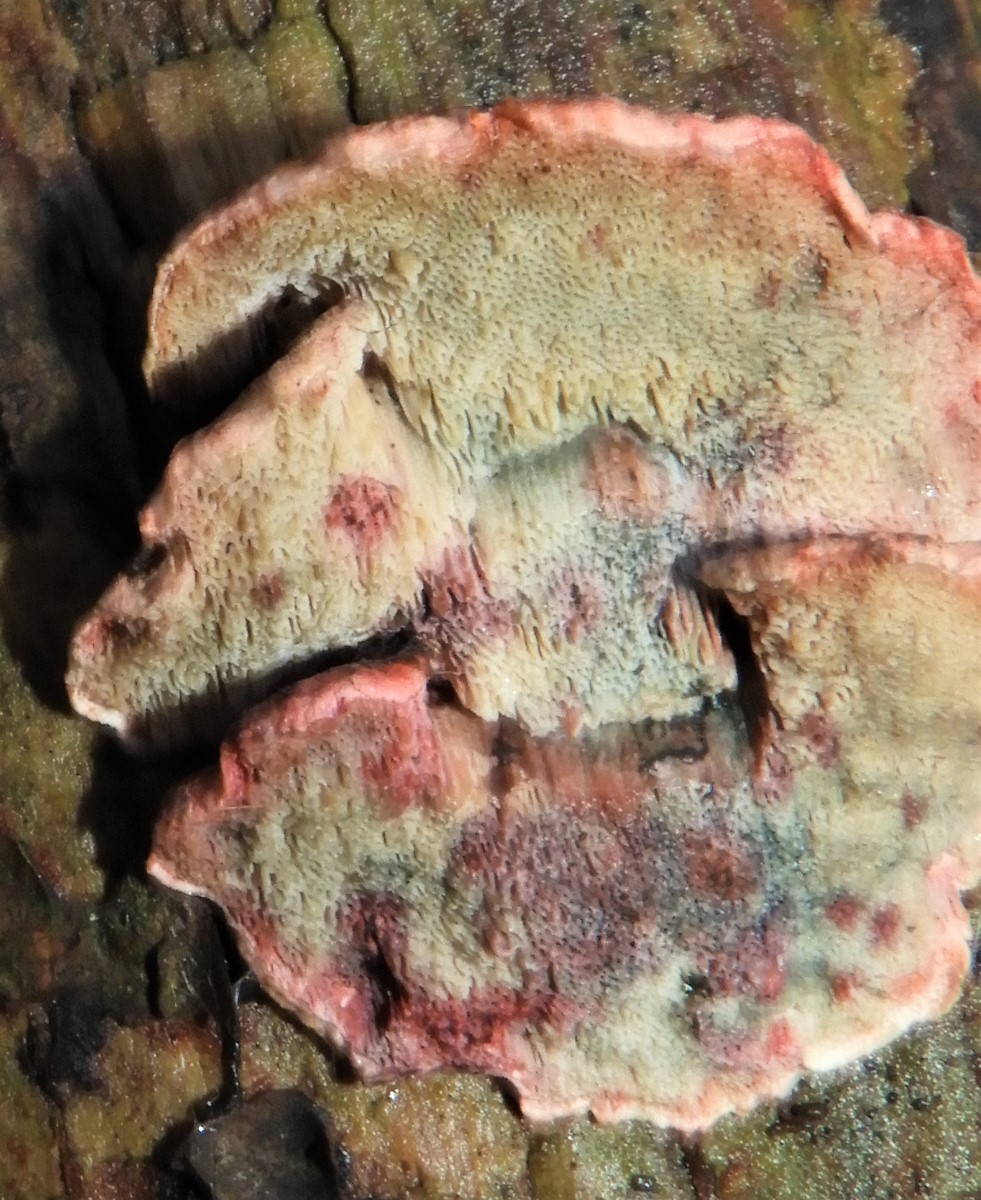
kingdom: Fungi
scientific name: Fungi
